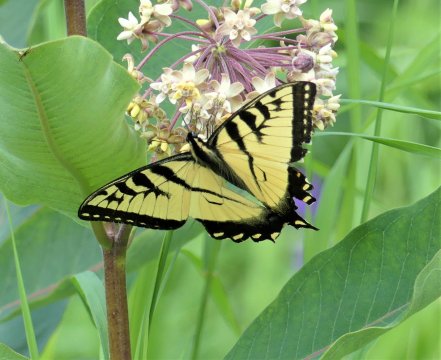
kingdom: Animalia
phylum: Arthropoda
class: Insecta
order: Lepidoptera
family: Papilionidae
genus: Pterourus
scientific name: Pterourus
